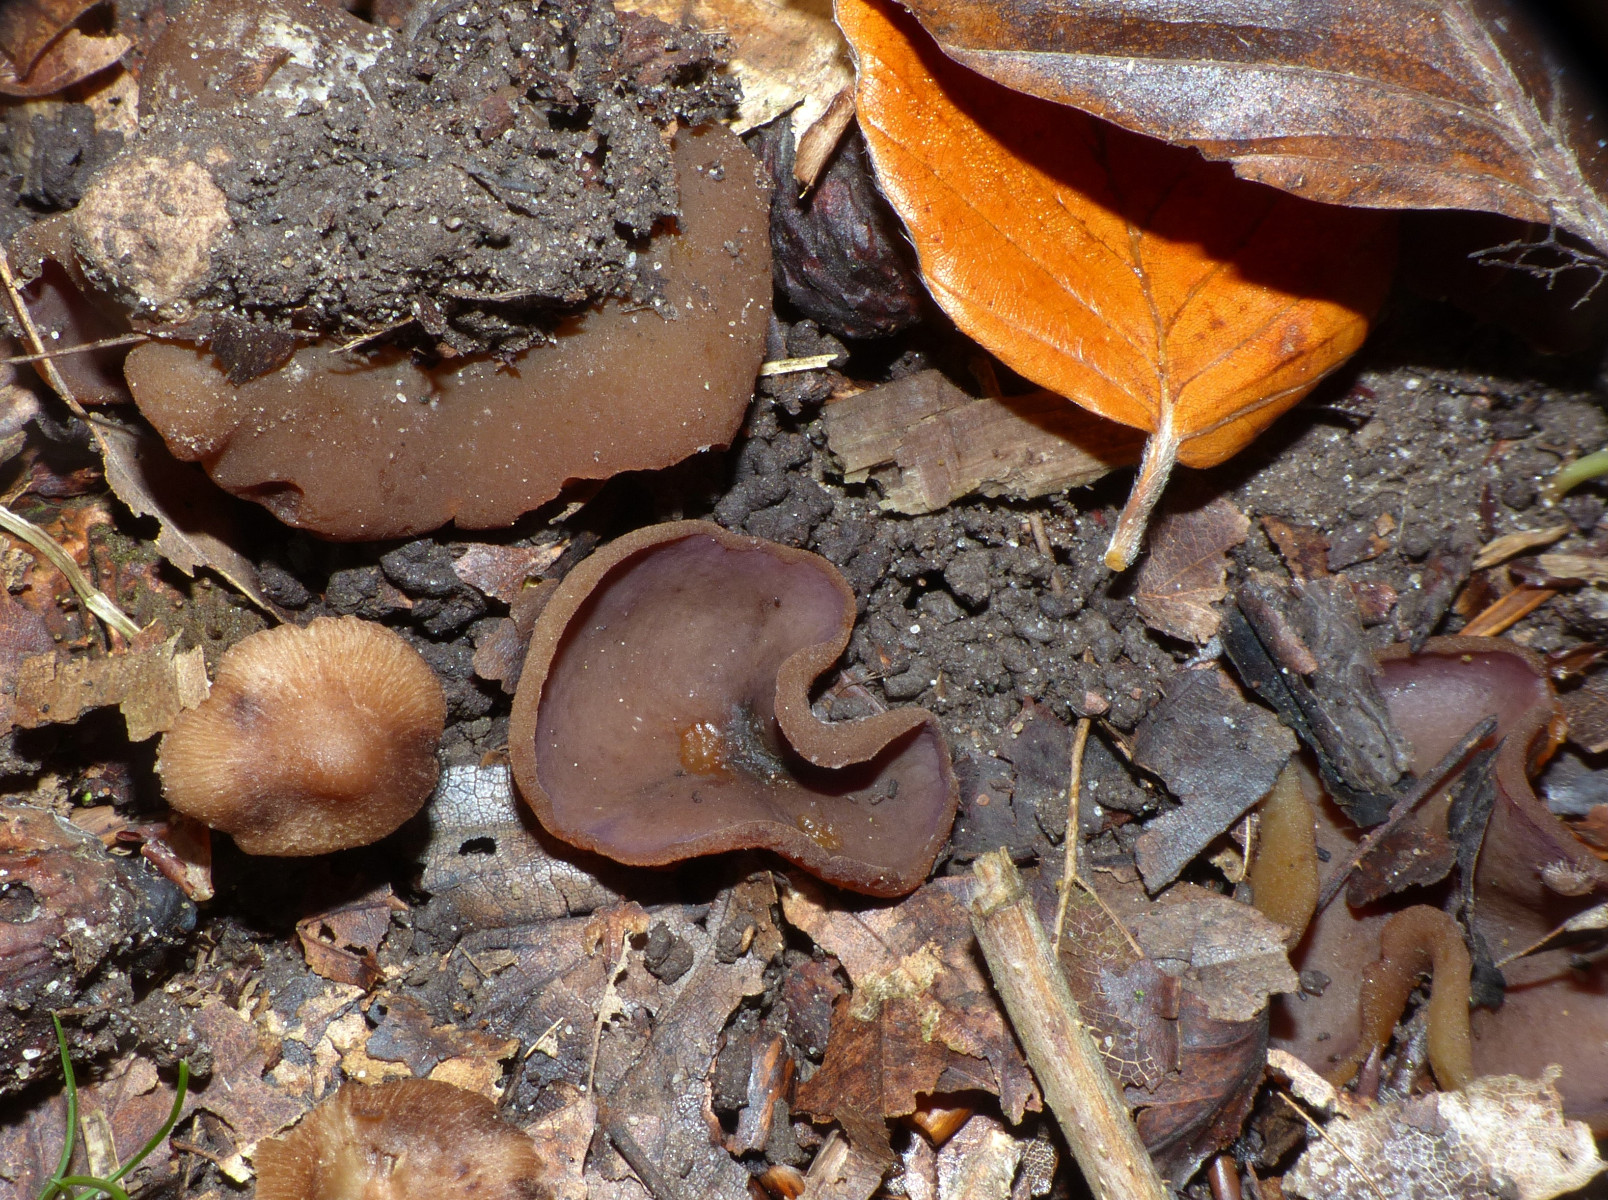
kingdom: Fungi
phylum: Ascomycota
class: Pezizomycetes
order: Pezizales
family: Pezizaceae
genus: Paragalactinia
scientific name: Paragalactinia michelii
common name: gulkødet bægersvamp
